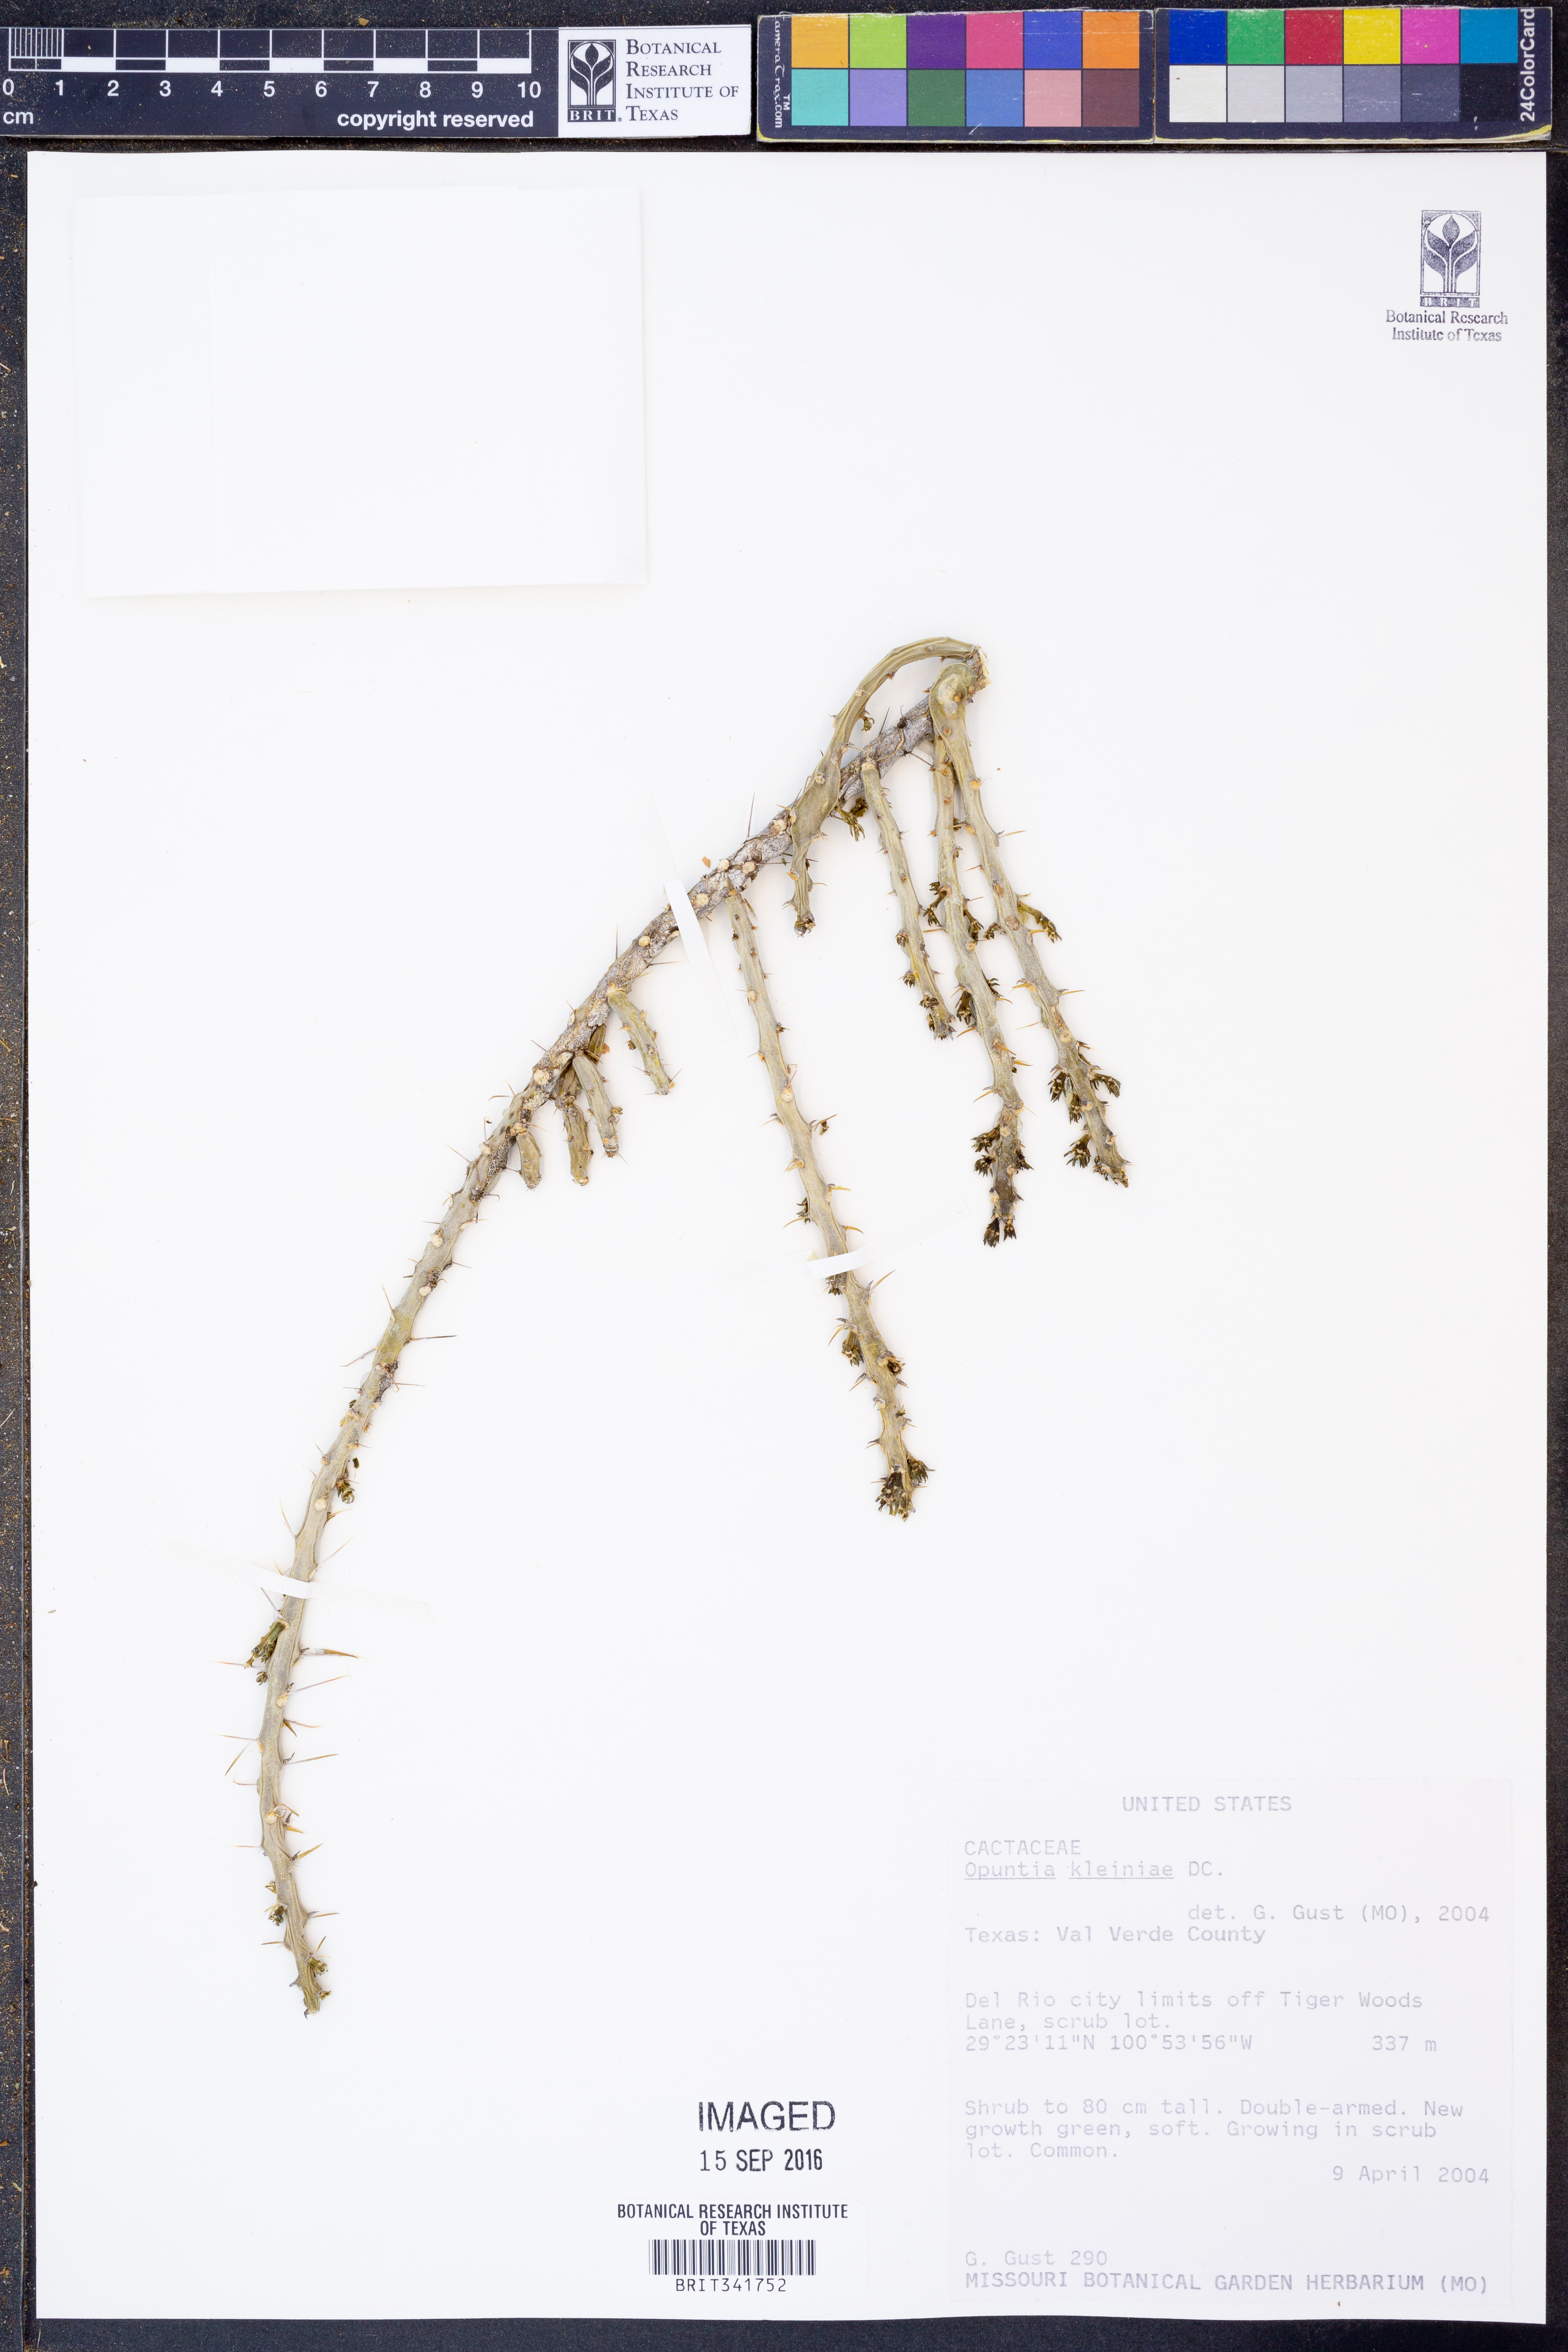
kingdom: Plantae
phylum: Tracheophyta
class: Magnoliopsida
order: Caryophyllales
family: Cactaceae
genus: Cylindropuntia
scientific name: Cylindropuntia leptocaulis
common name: Christmas cactus
